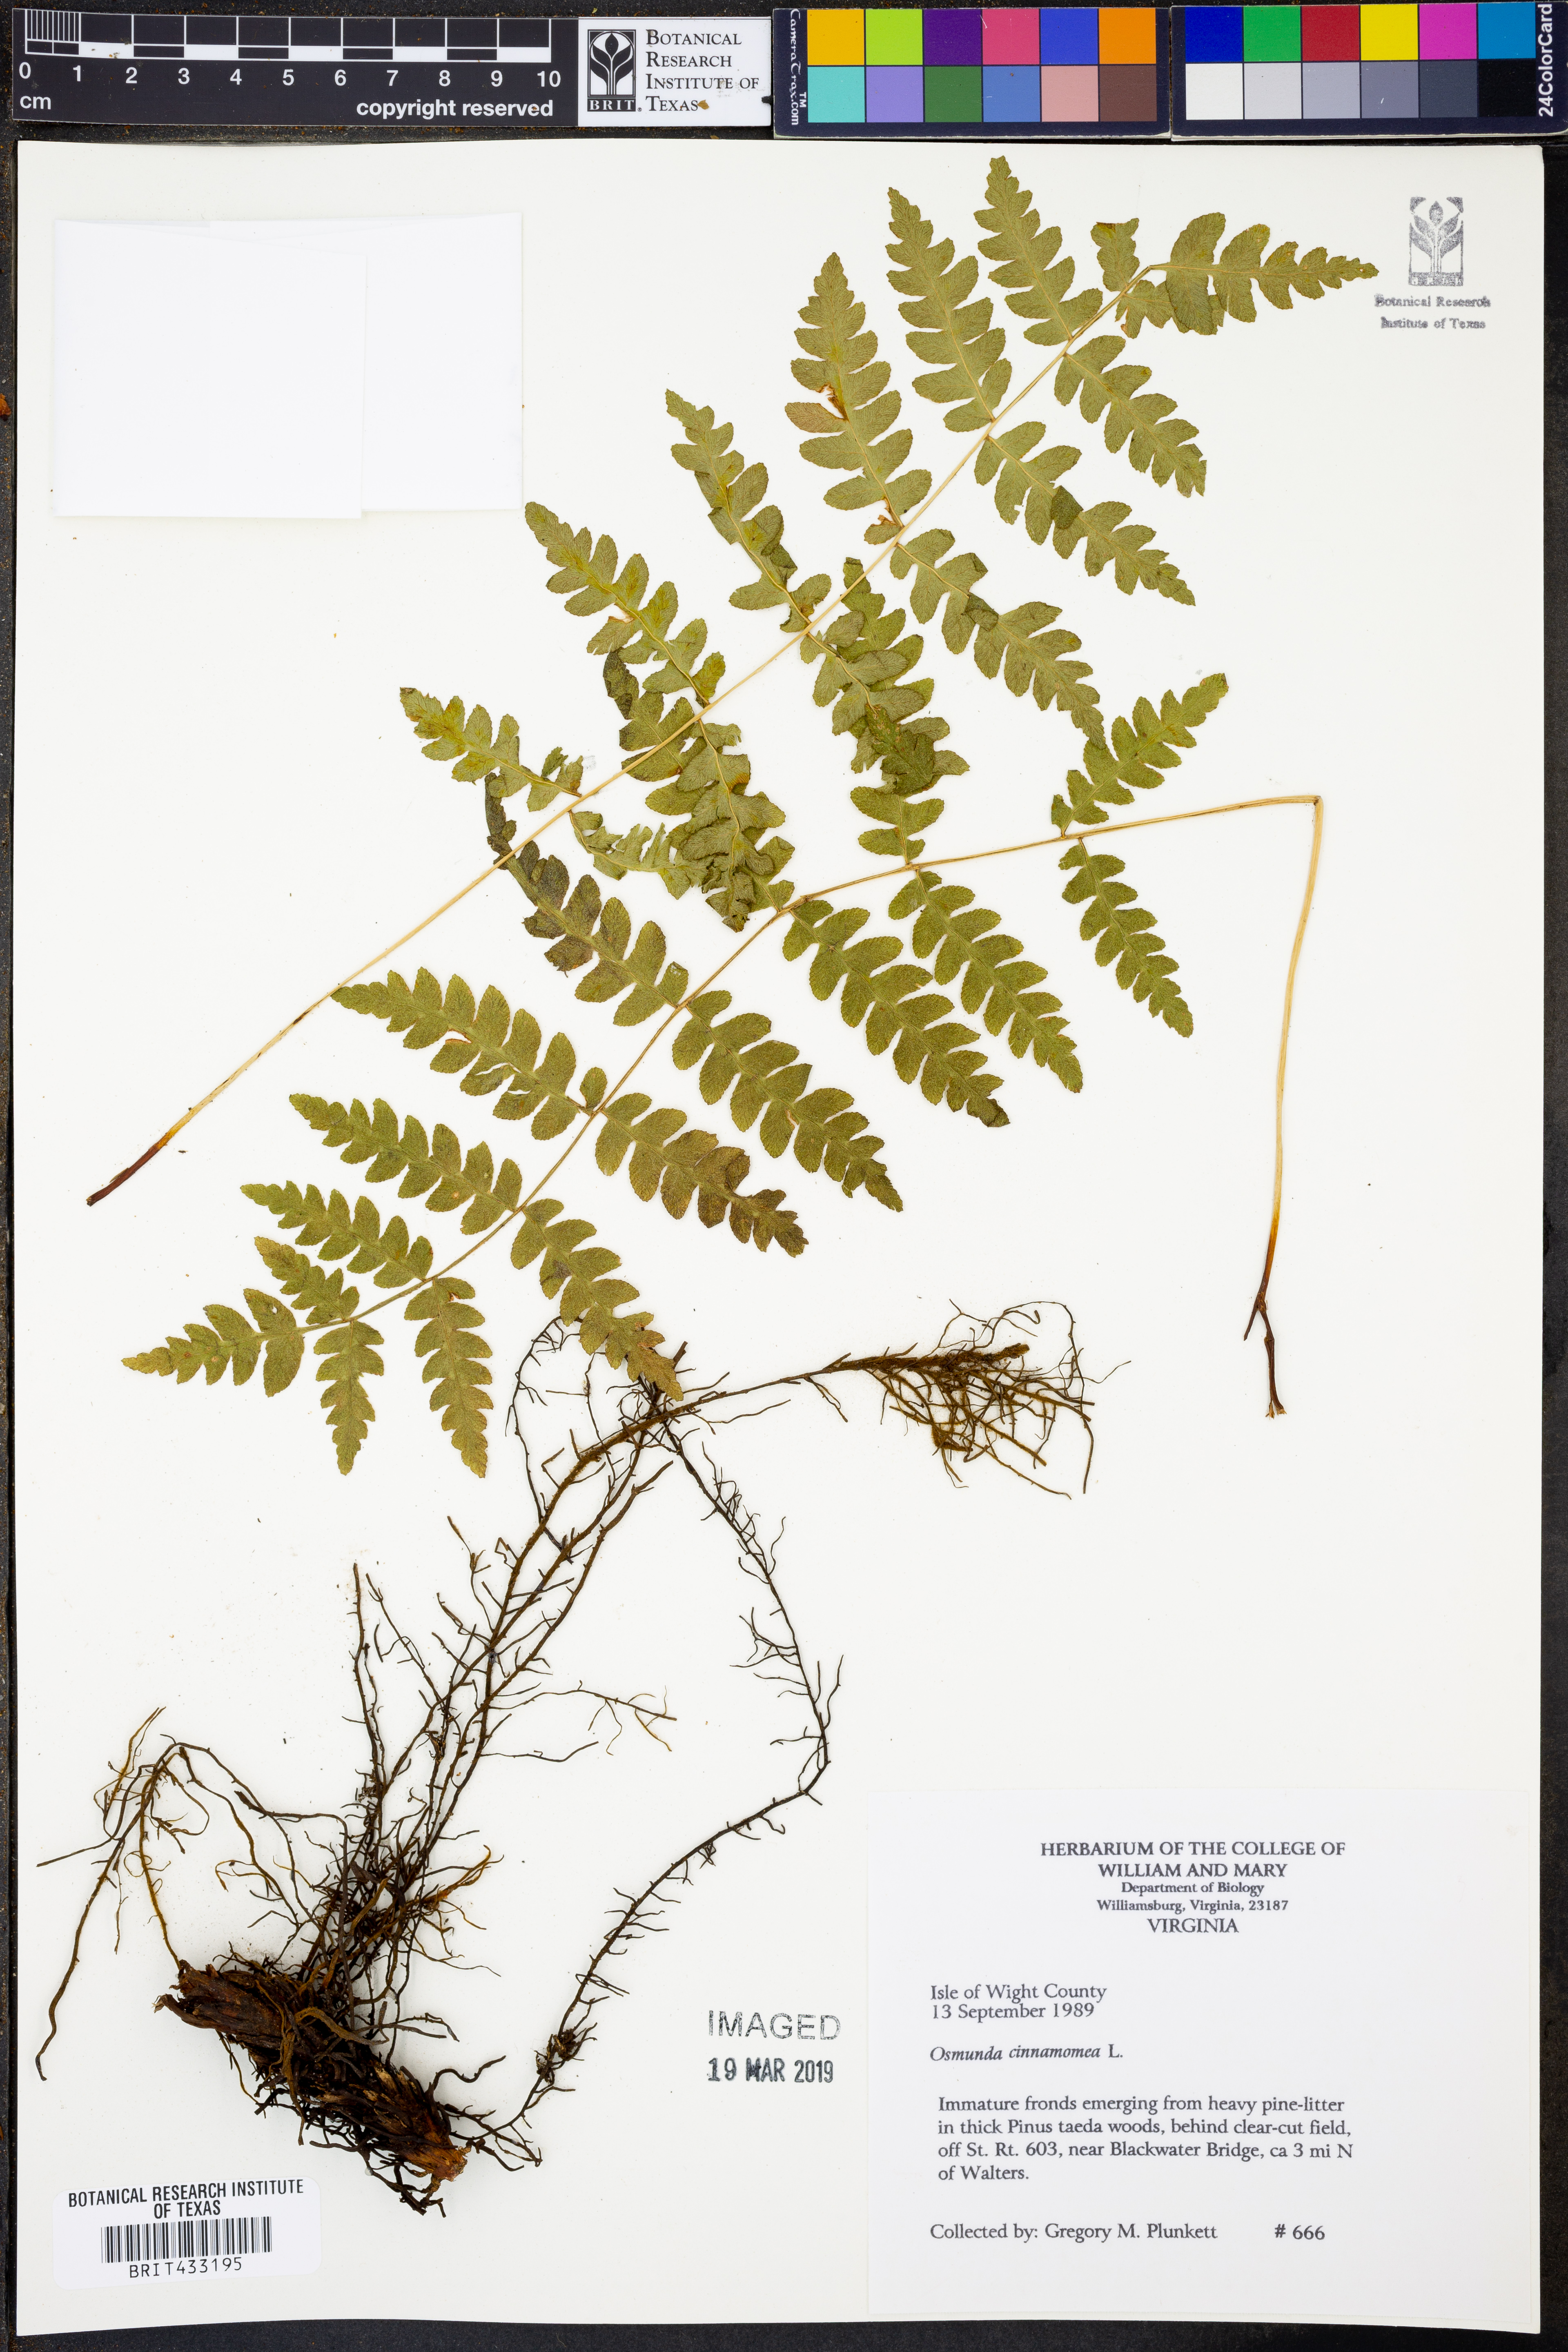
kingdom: Plantae
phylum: Tracheophyta
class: Polypodiopsida
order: Osmundales
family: Osmundaceae
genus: Osmundastrum
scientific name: Osmundastrum cinnamomeum
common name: Cinnamon fern
